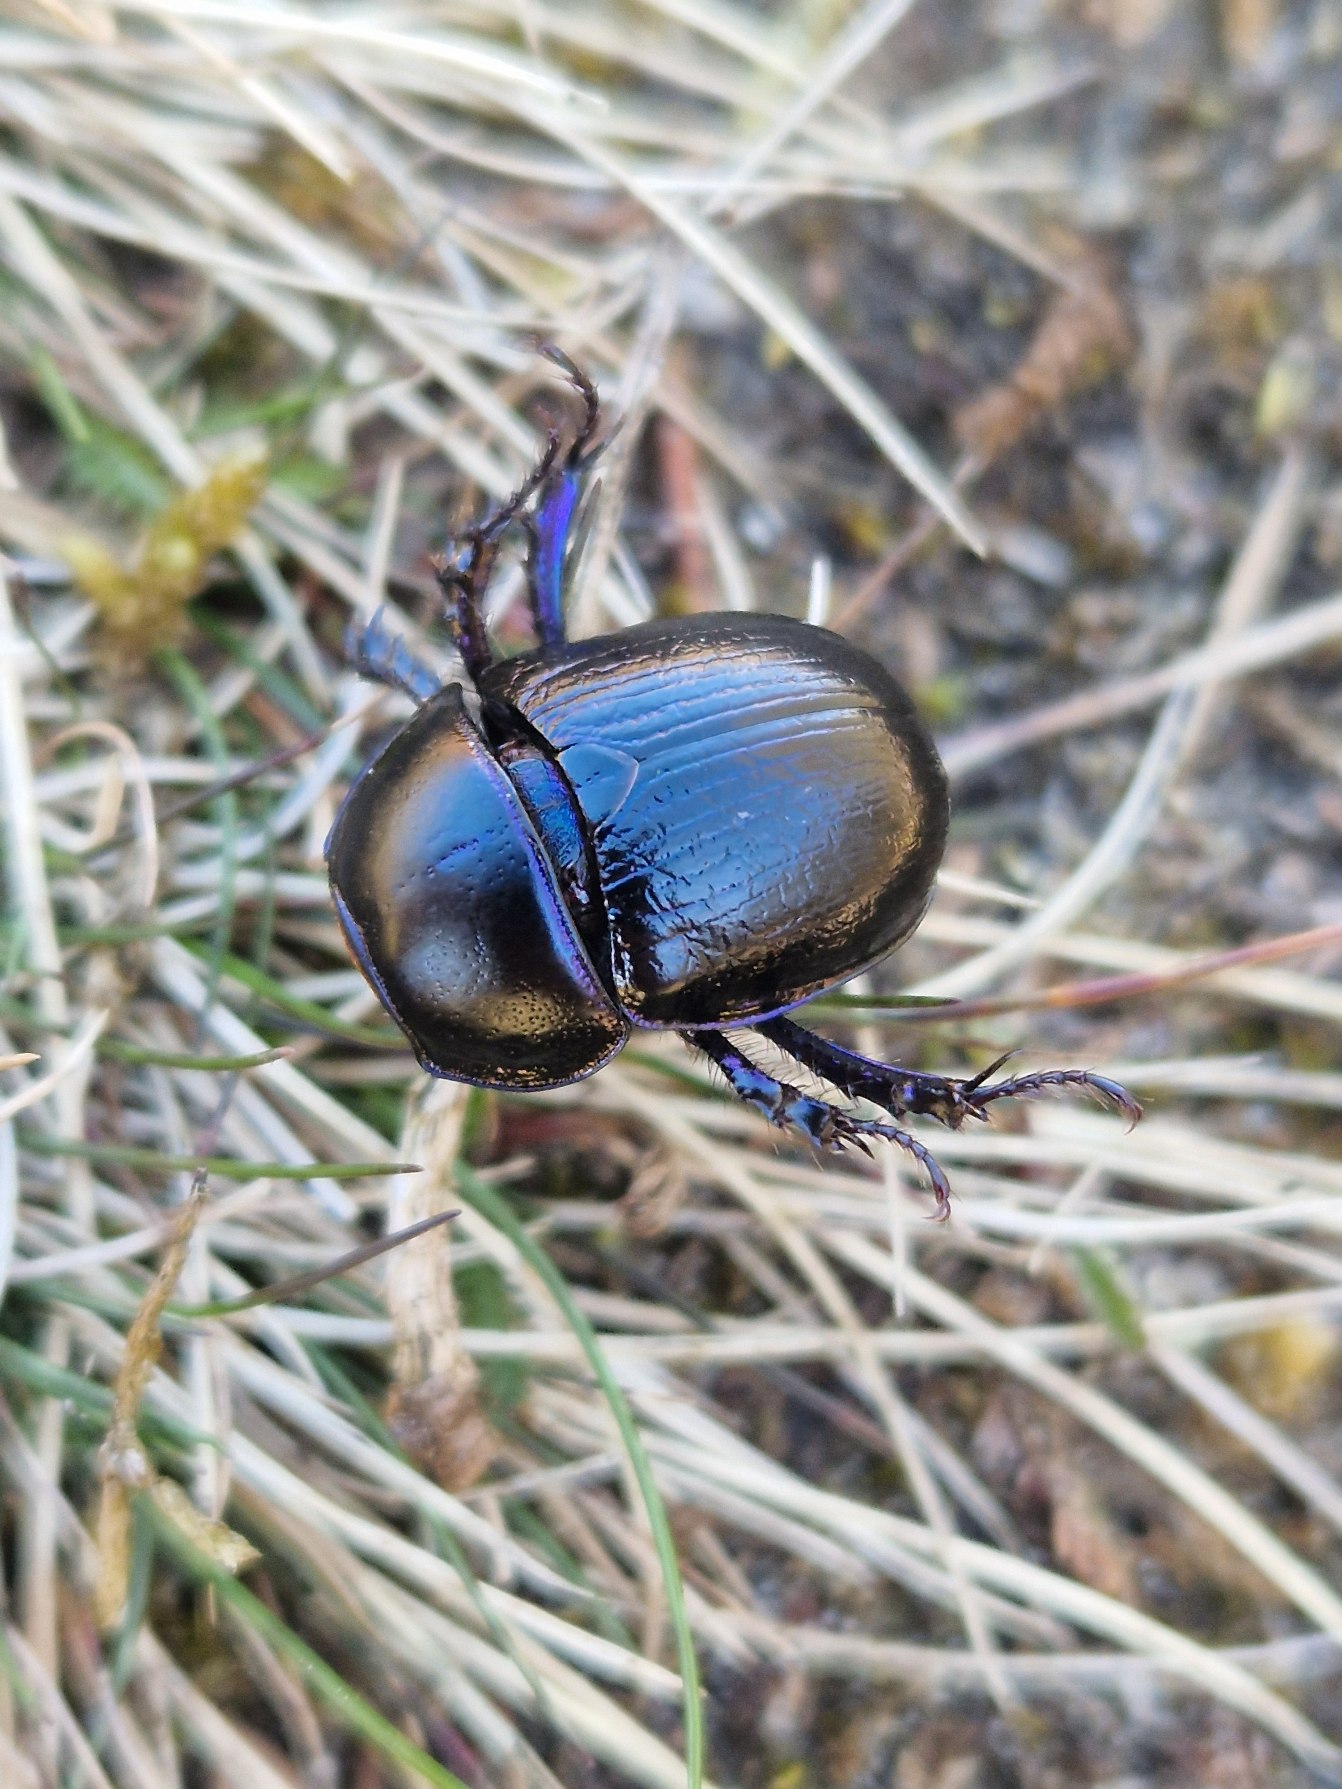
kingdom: Animalia
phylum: Arthropoda
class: Insecta
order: Coleoptera
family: Geotrupidae
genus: Anoplotrupes
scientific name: Anoplotrupes stercorosus
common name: Skovskarnbasse
